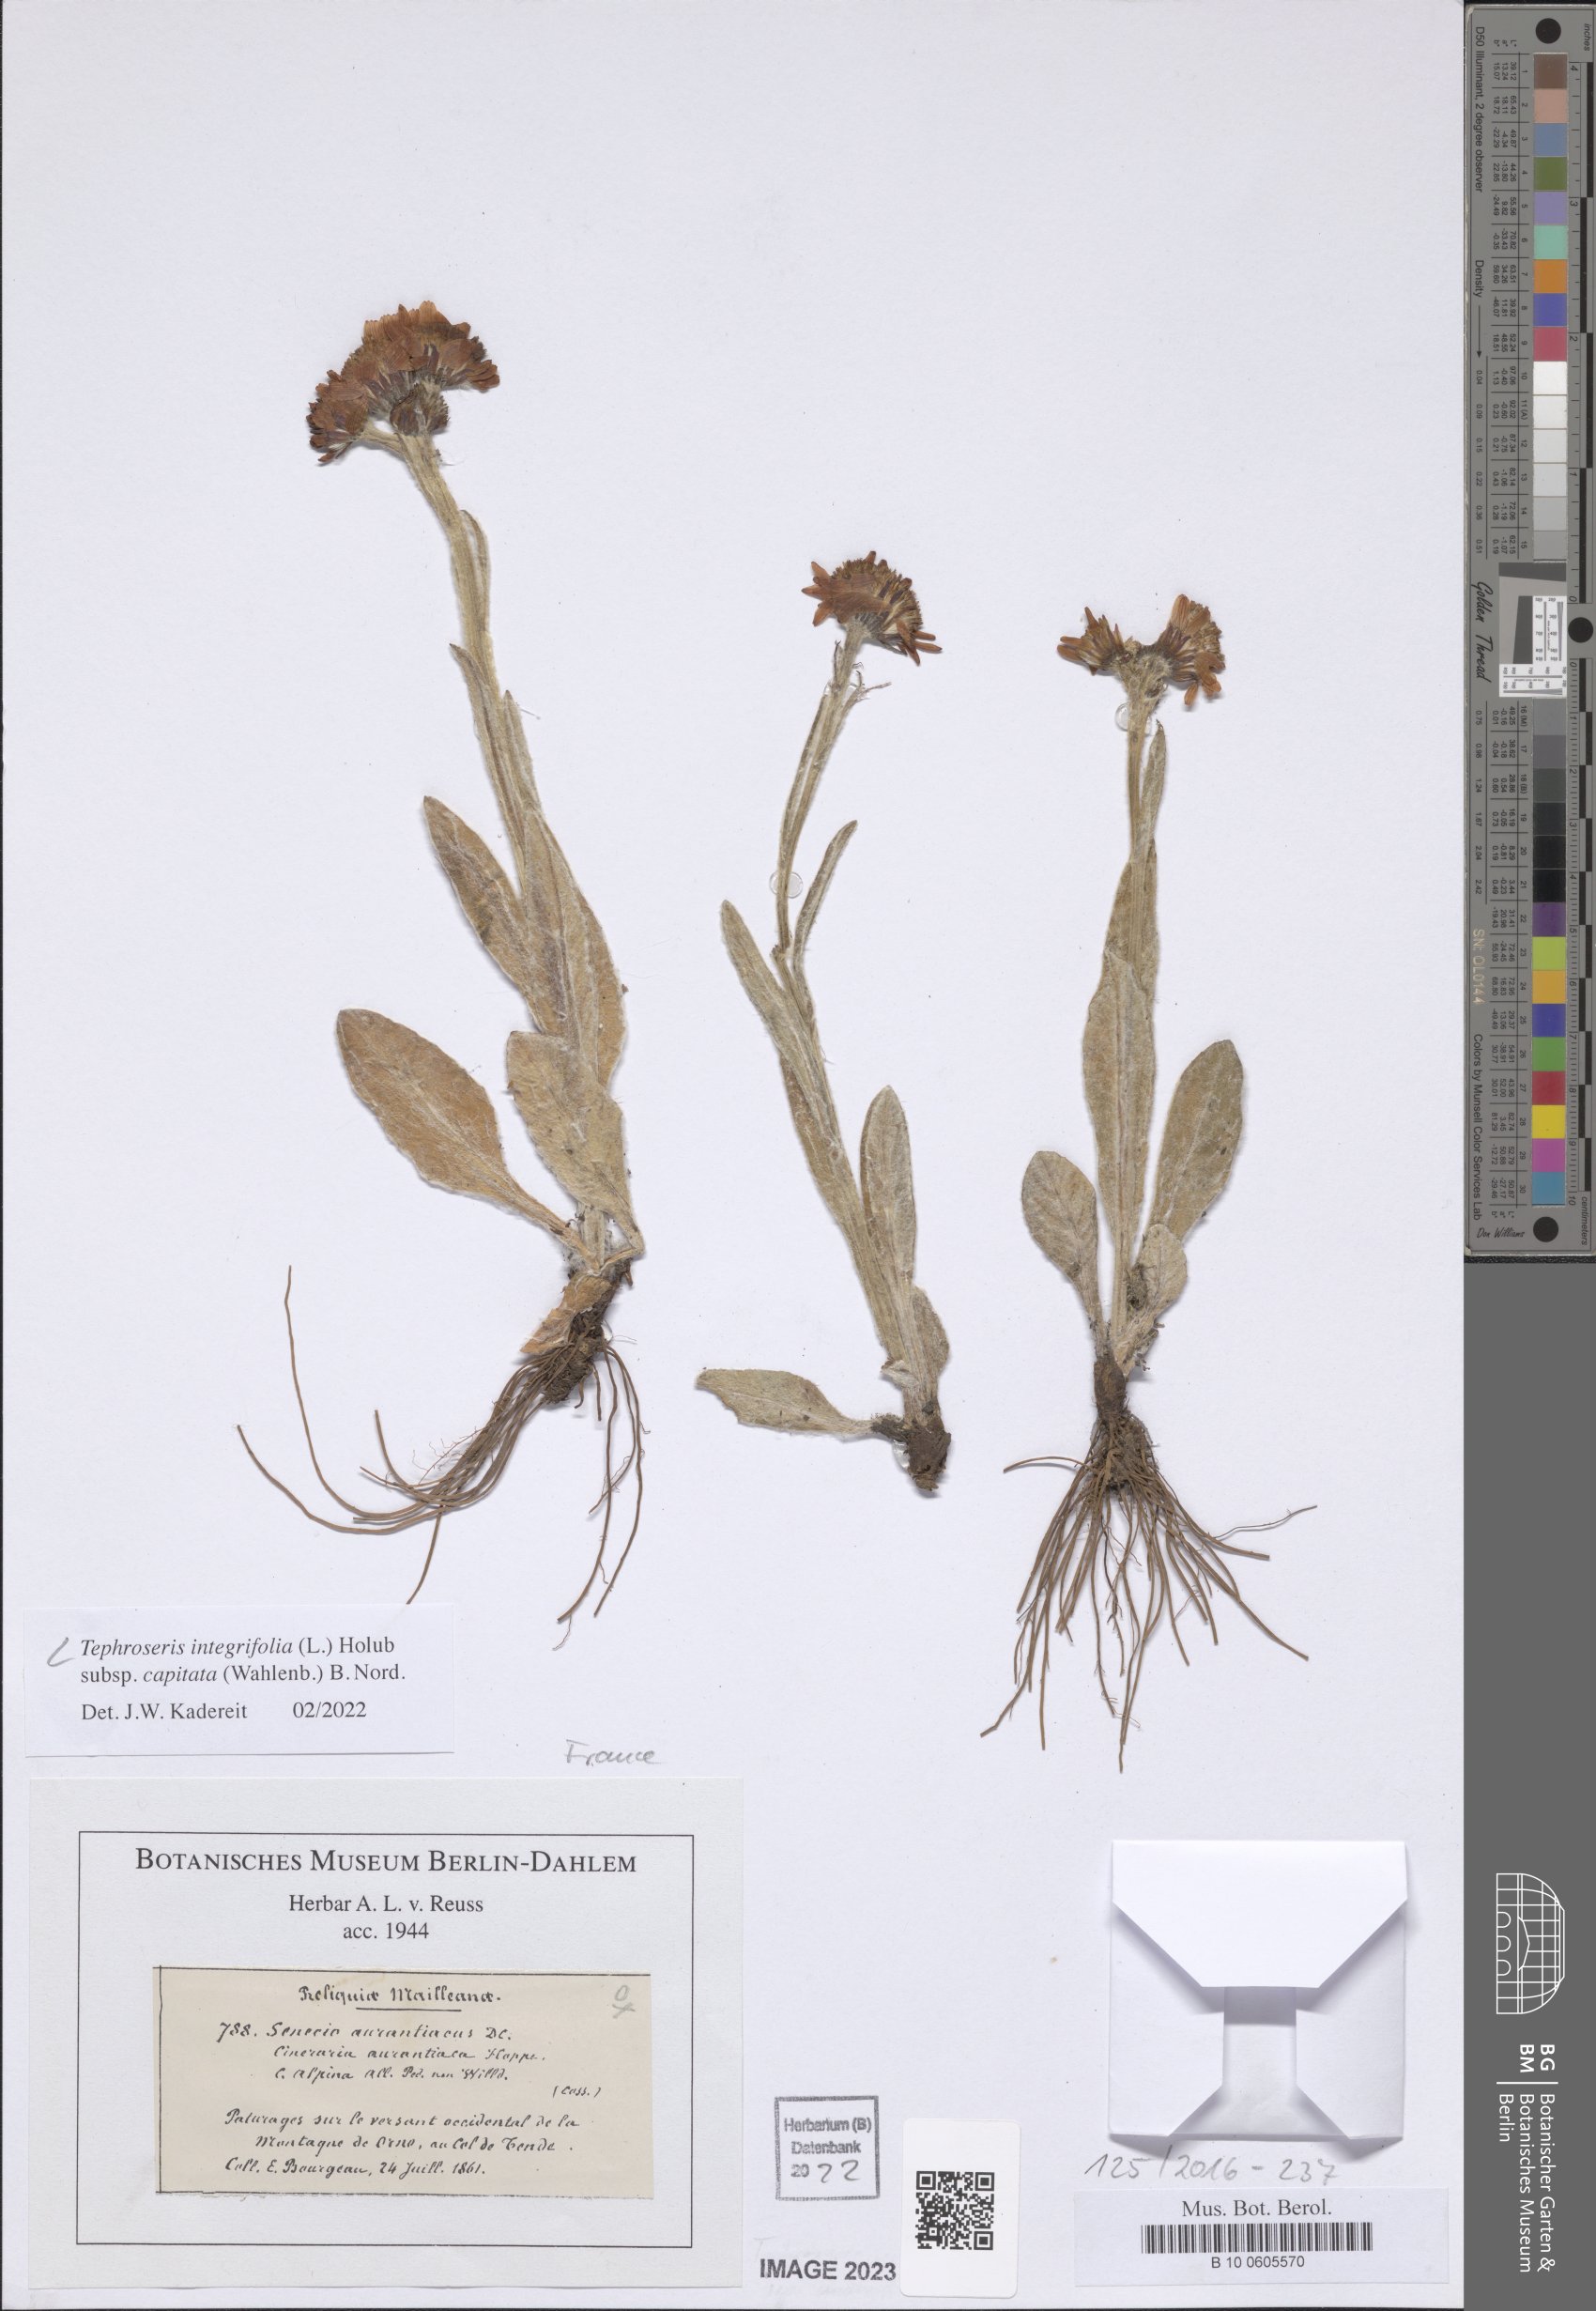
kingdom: Plantae
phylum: Tracheophyta
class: Magnoliopsida
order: Asterales
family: Asteraceae
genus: Tephroseris
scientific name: Tephroseris integrifolia
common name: Field fleawort
